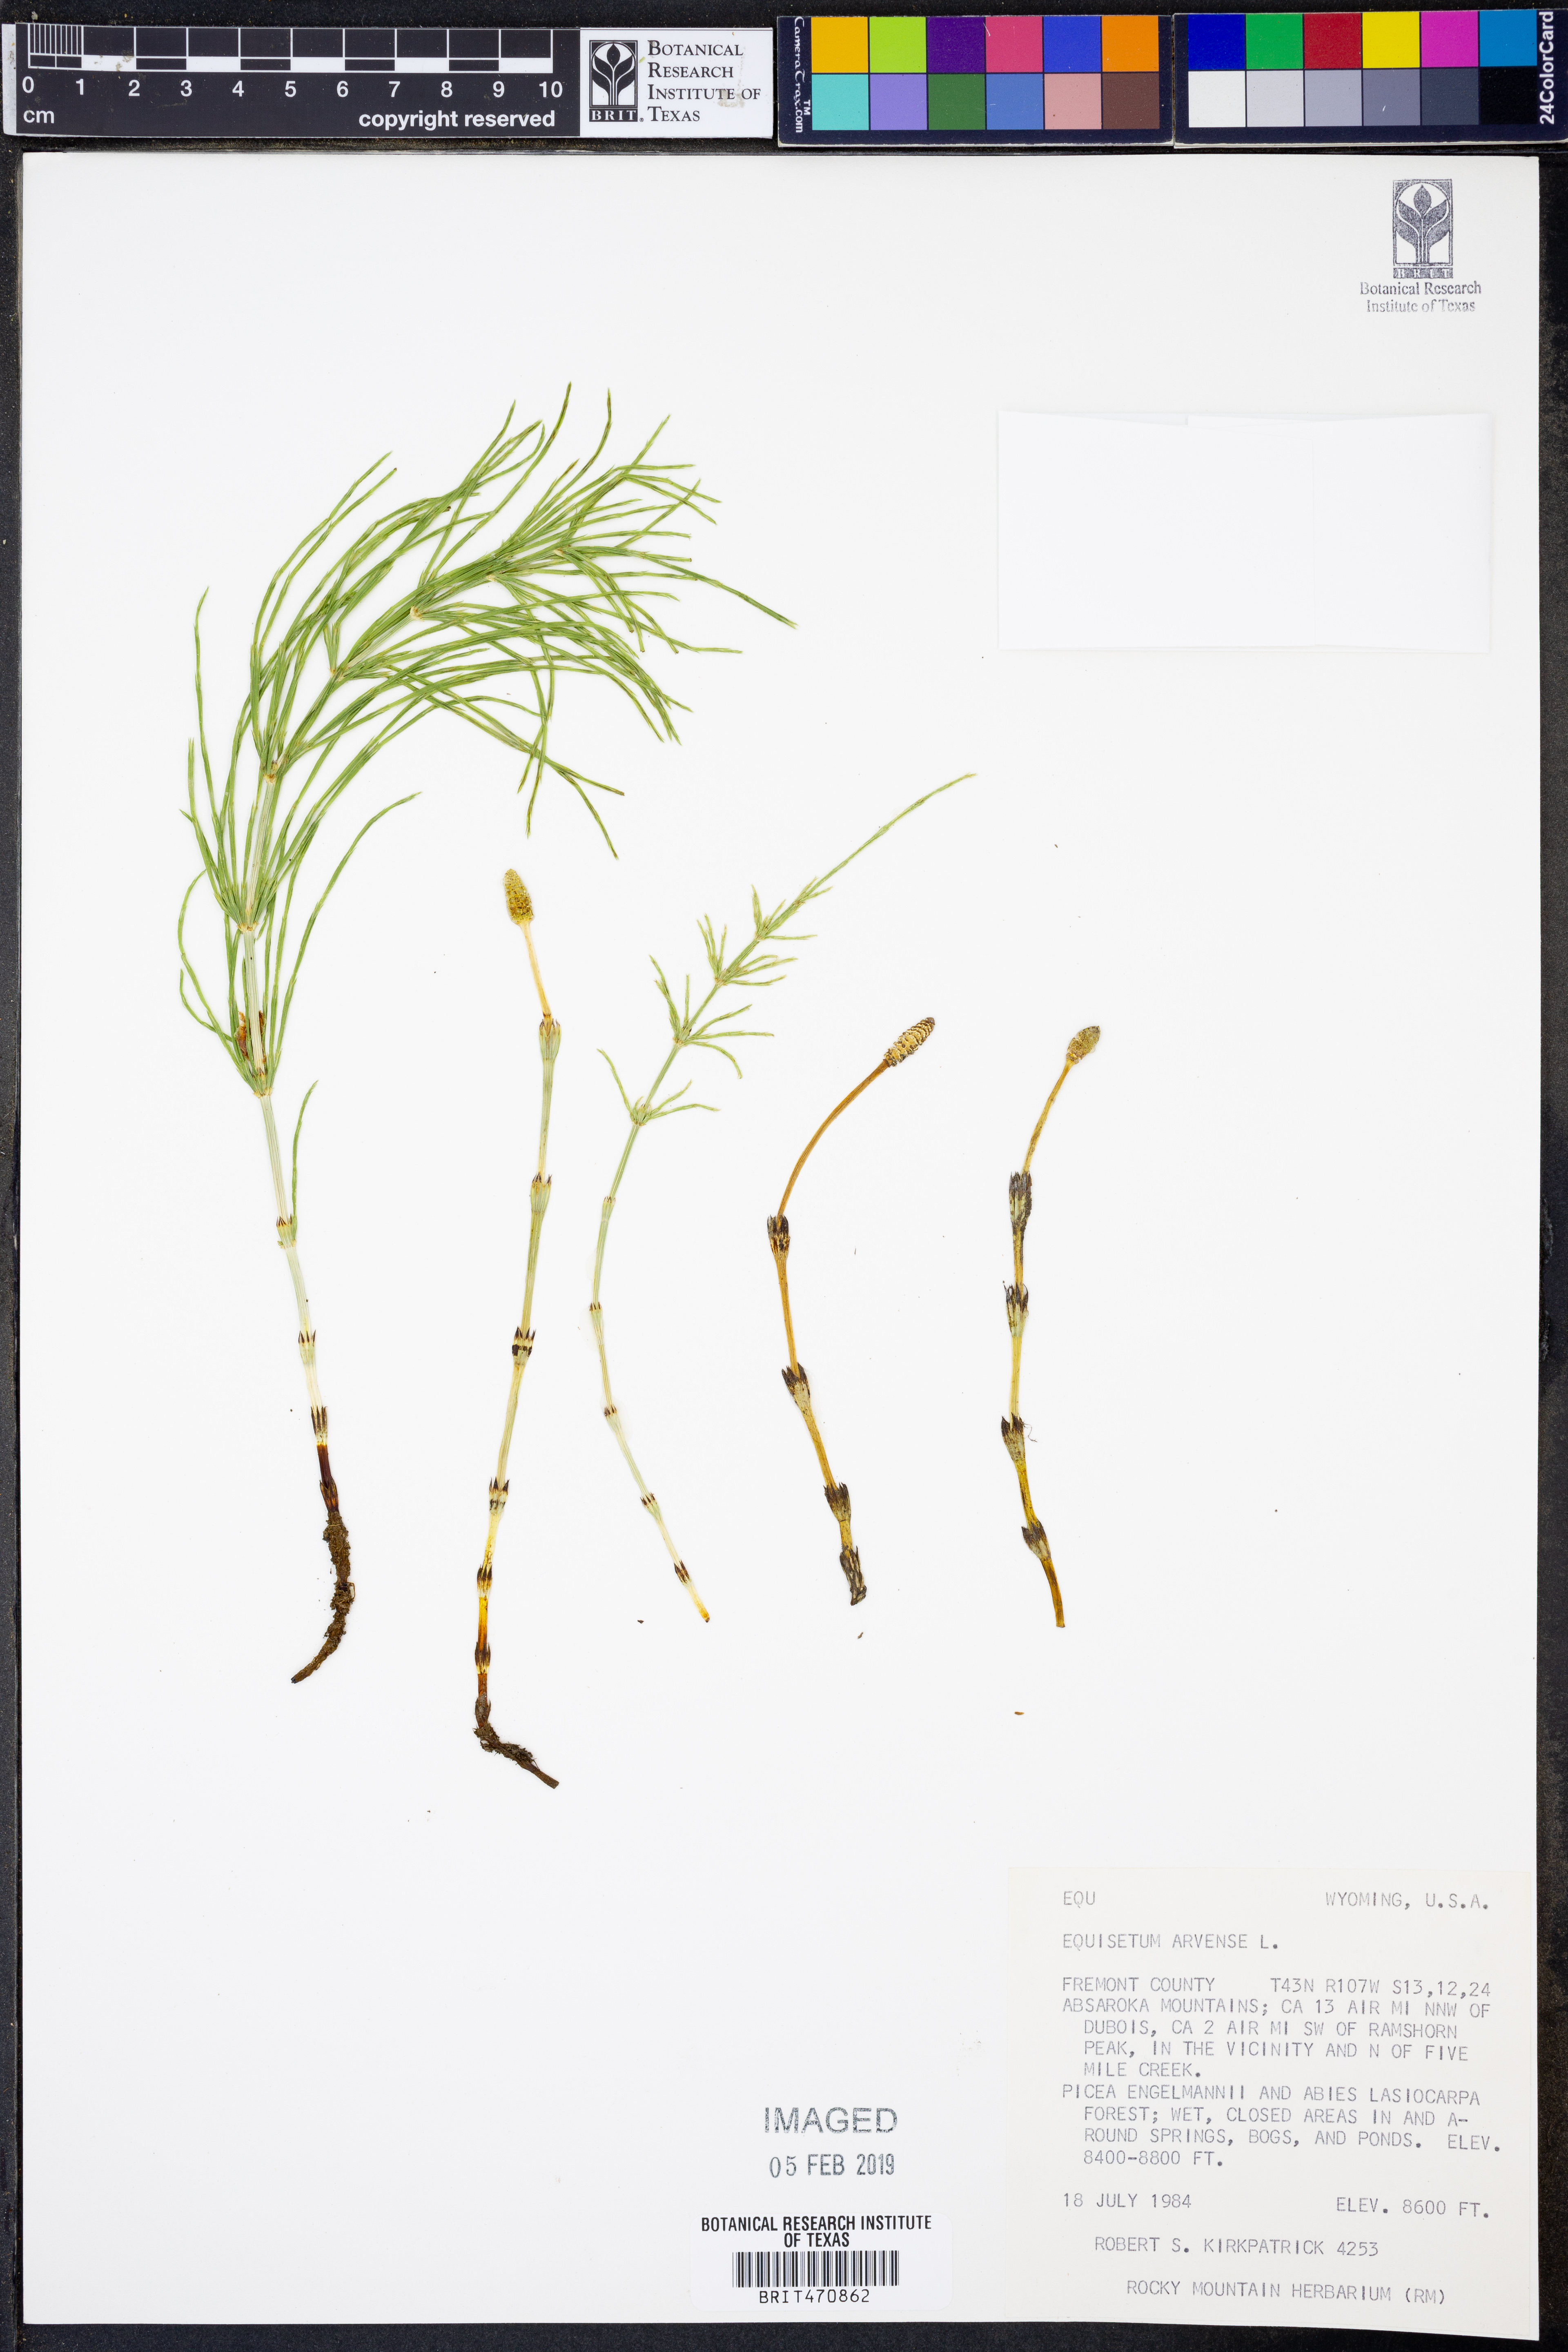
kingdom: Plantae
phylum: Tracheophyta
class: Polypodiopsida
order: Equisetales
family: Equisetaceae
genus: Equisetum
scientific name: Equisetum arvense
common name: Field horsetail
